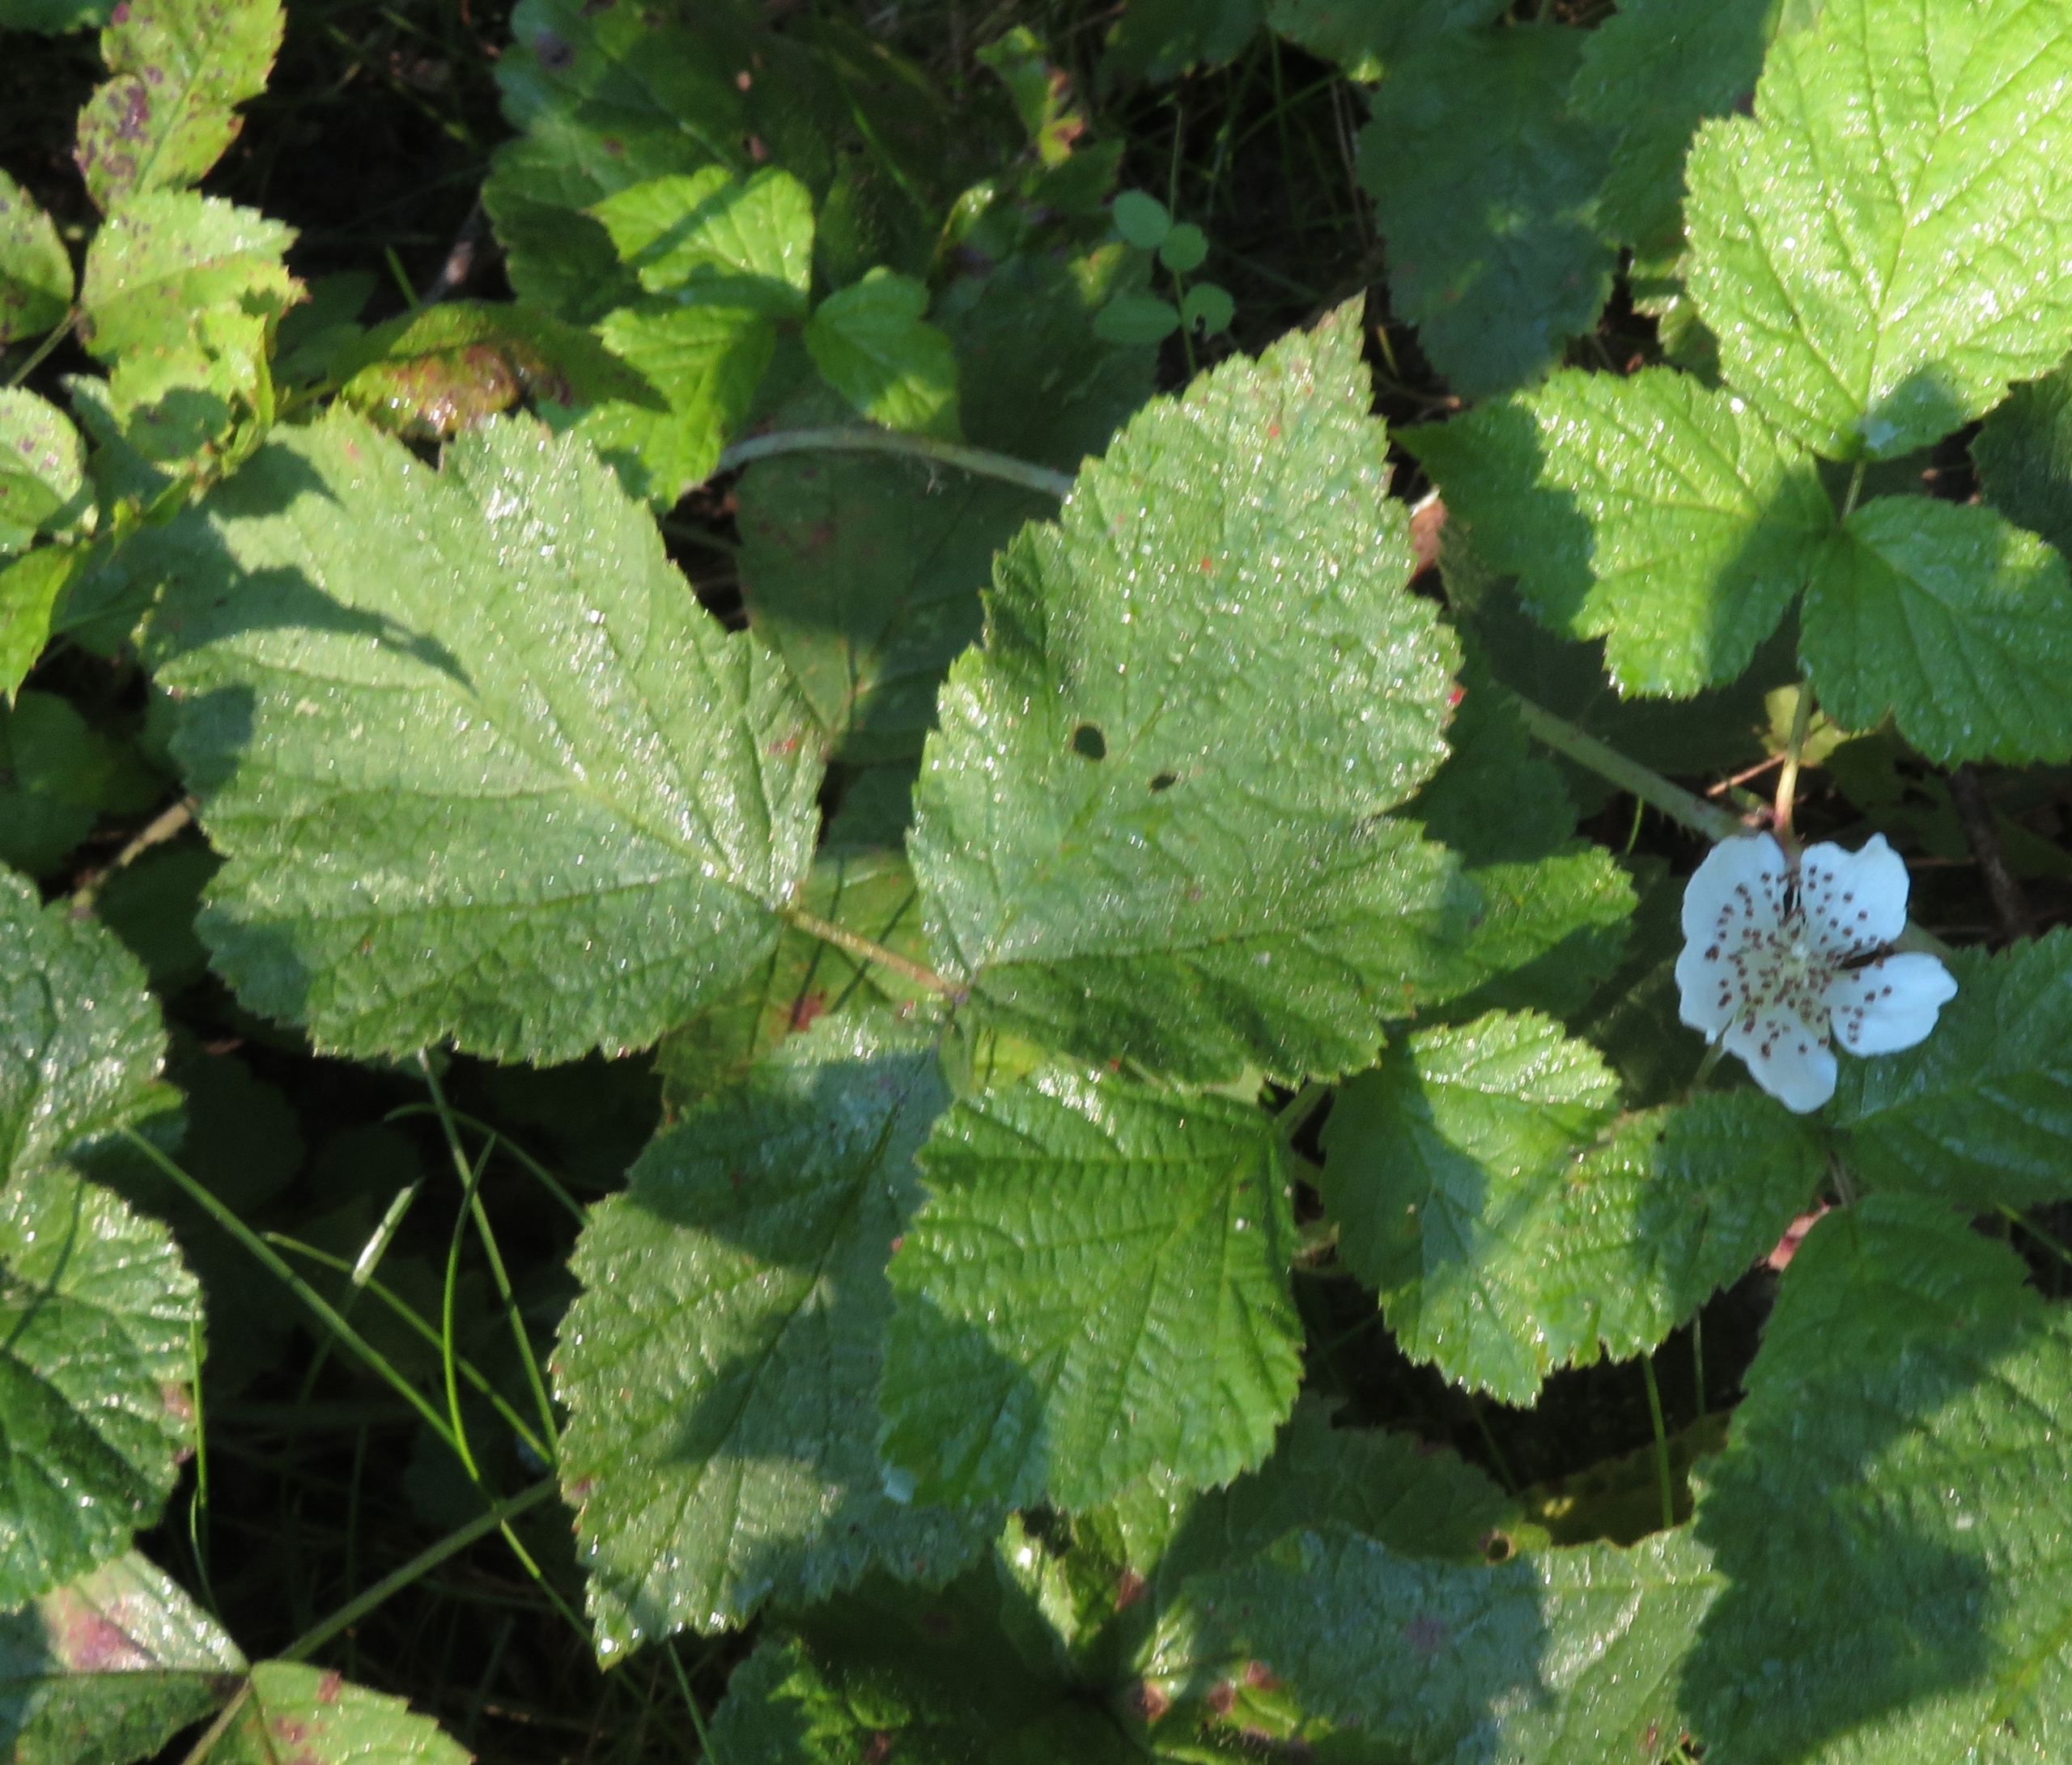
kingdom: Plantae
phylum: Tracheophyta
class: Magnoliopsida
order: Rosales
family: Rosaceae
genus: Rubus
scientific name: Rubus caesius
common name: Korbær
